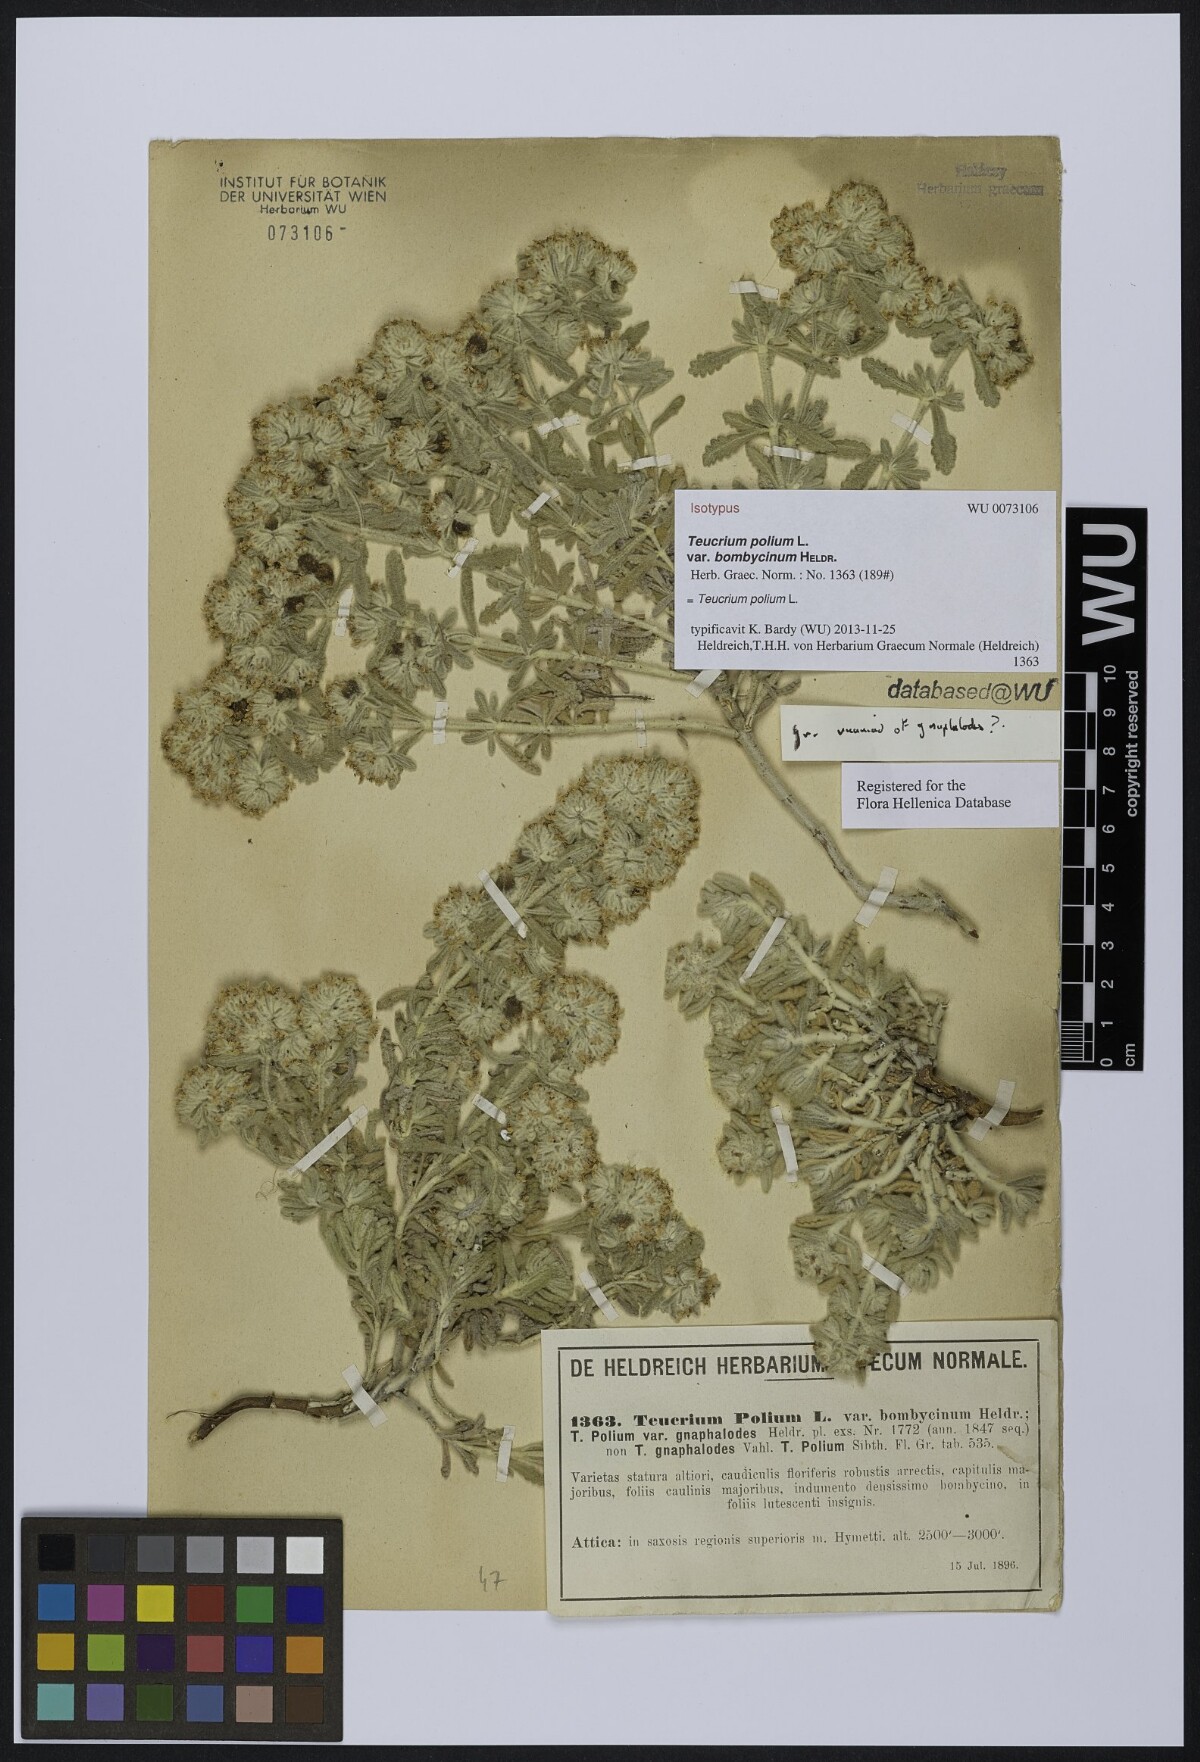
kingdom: Plantae
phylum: Tracheophyta
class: Magnoliopsida
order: Lamiales
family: Lamiaceae
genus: Teucrium
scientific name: Teucrium dunense
